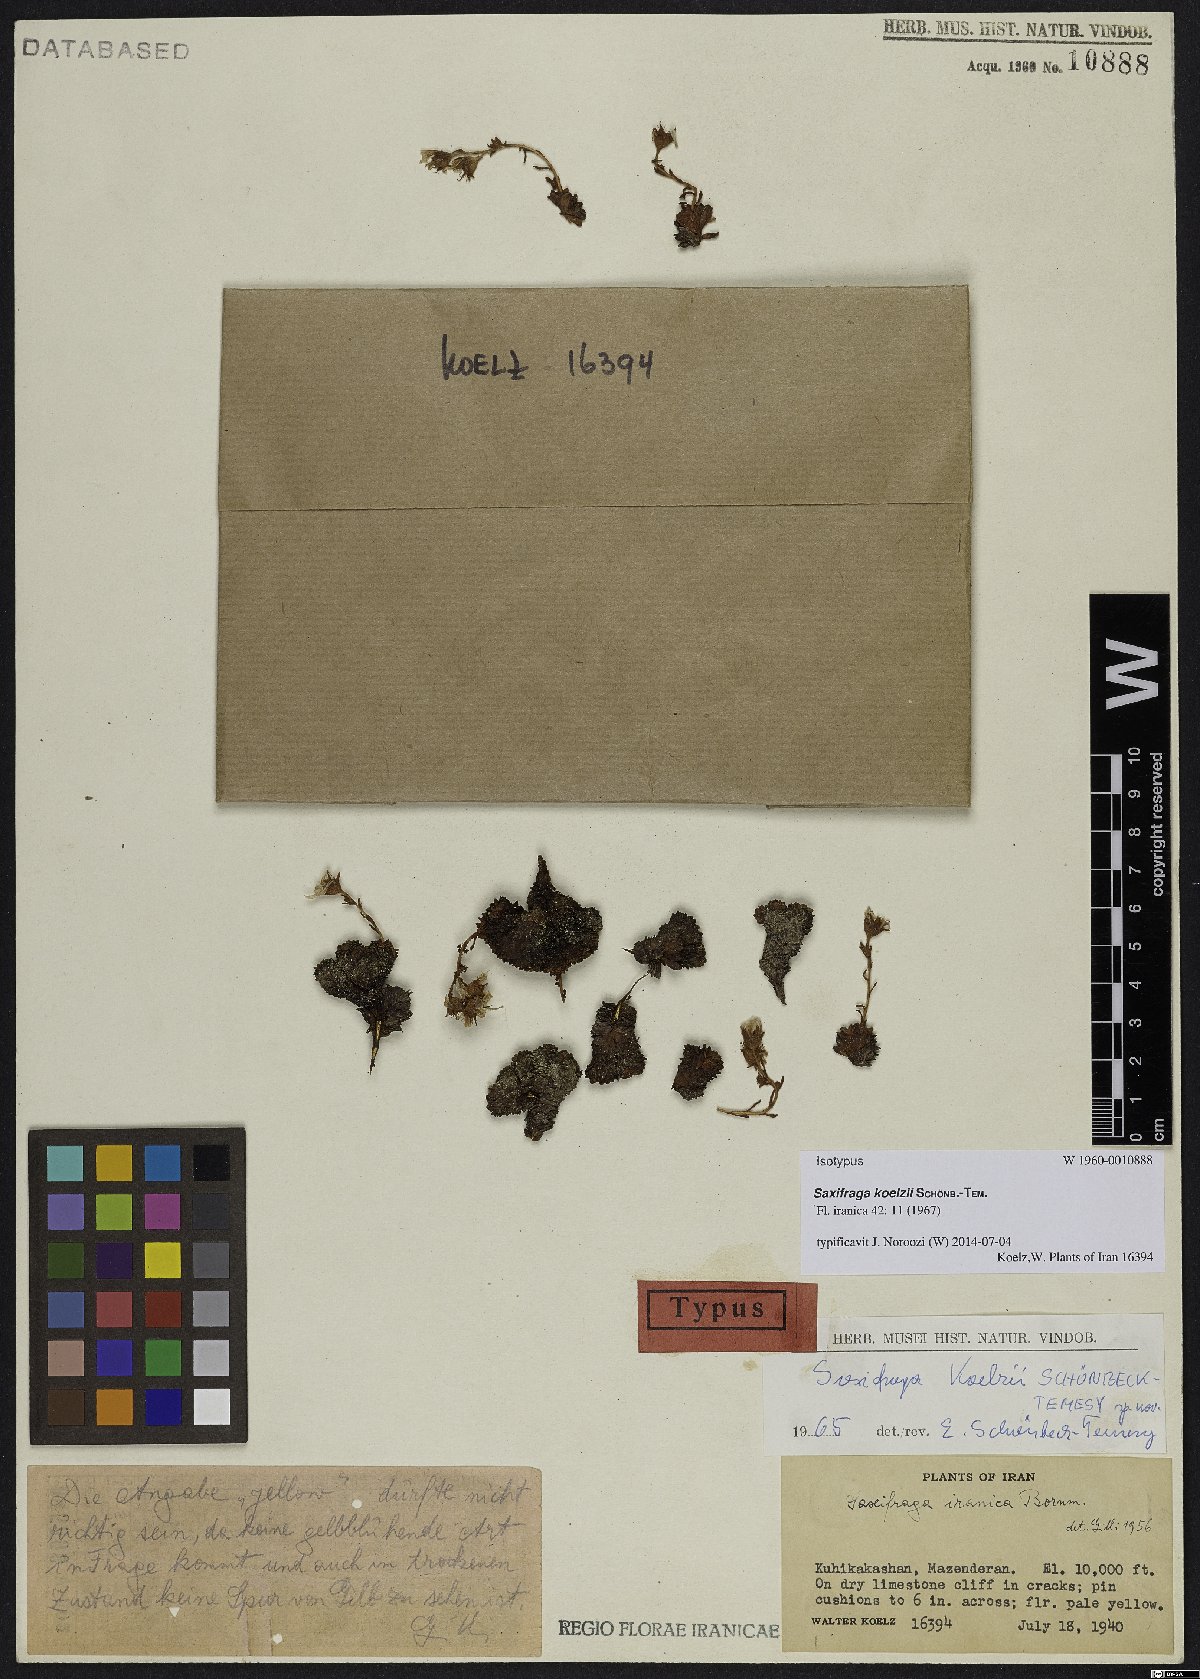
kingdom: Plantae
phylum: Tracheophyta
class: Magnoliopsida
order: Saxifragales
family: Saxifragaceae
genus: Saxifraga
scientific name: Saxifraga koelzii
